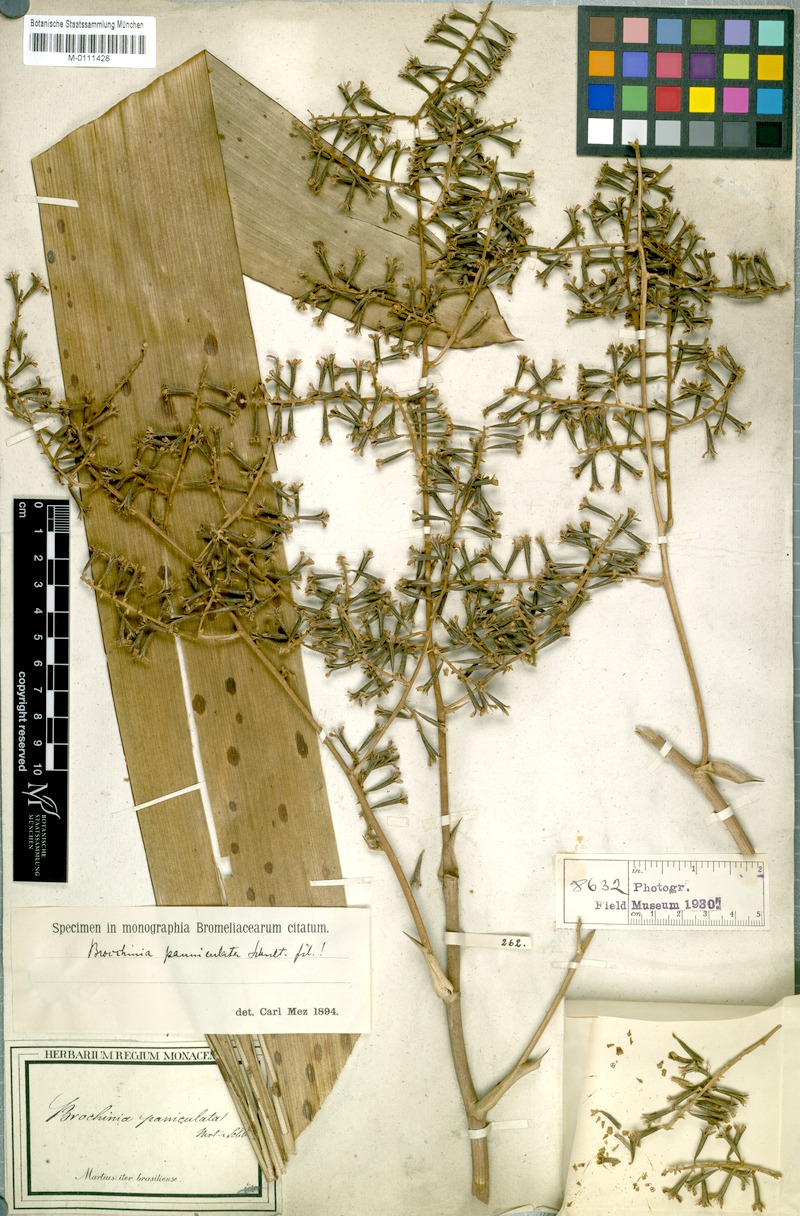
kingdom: Plantae
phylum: Tracheophyta
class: Liliopsida
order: Poales
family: Bromeliaceae
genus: Brocchinia
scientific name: Brocchinia paniculata
